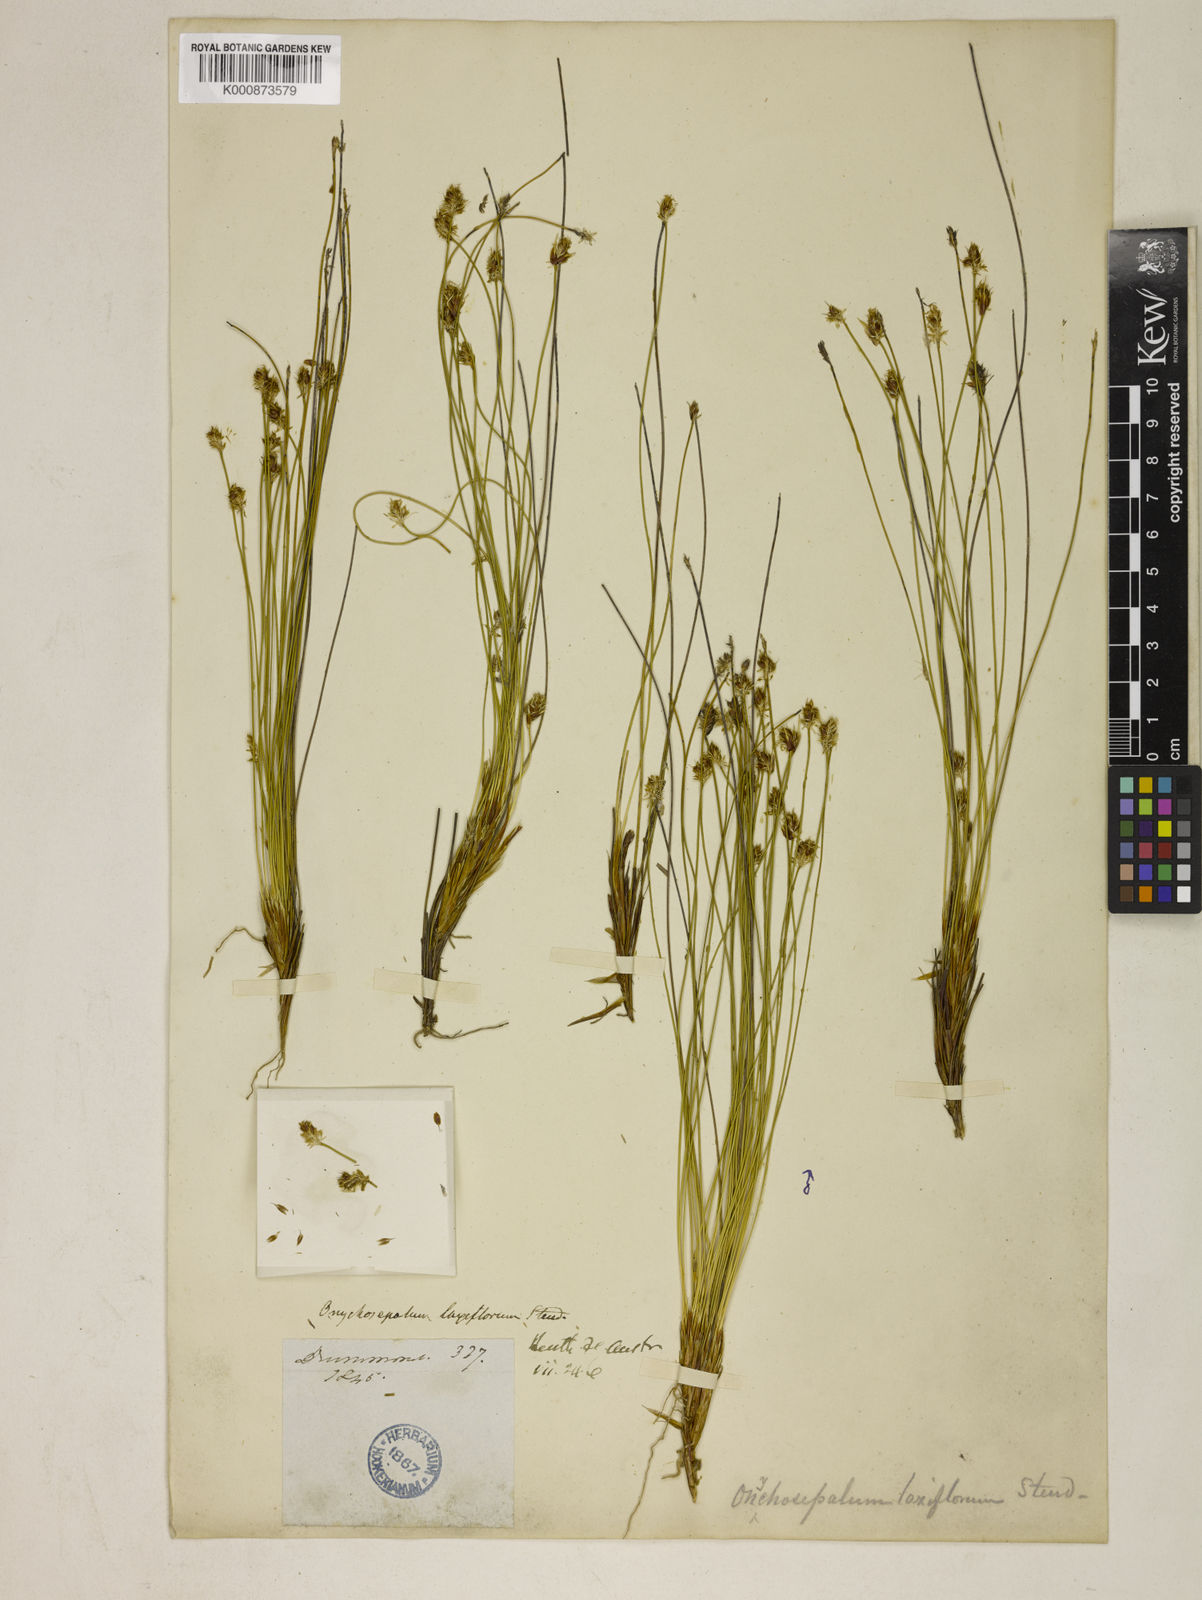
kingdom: Plantae
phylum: Tracheophyta
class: Liliopsida
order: Poales
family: Restionaceae
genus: Desmocladus
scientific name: Desmocladus laxiflorus
